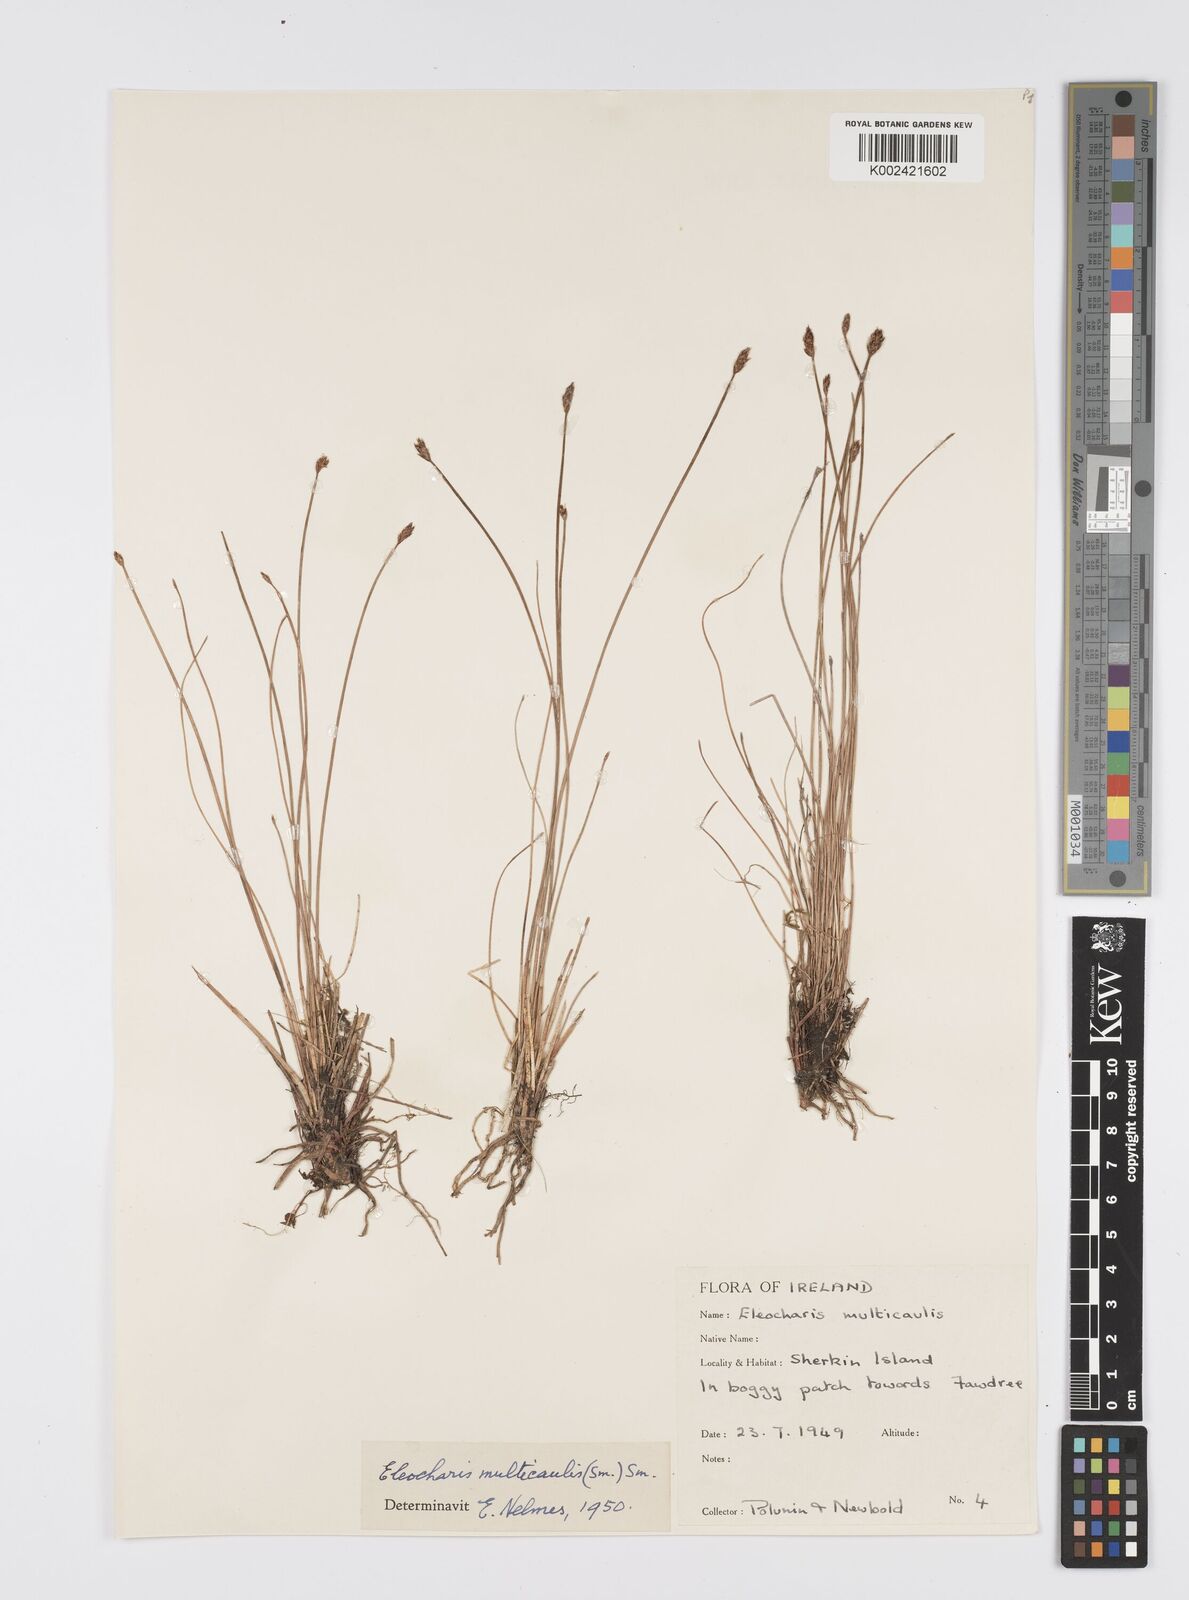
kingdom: Plantae
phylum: Tracheophyta
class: Liliopsida
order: Poales
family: Cyperaceae
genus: Eleocharis
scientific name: Eleocharis multicaulis
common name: Many-stalked spike-rush
